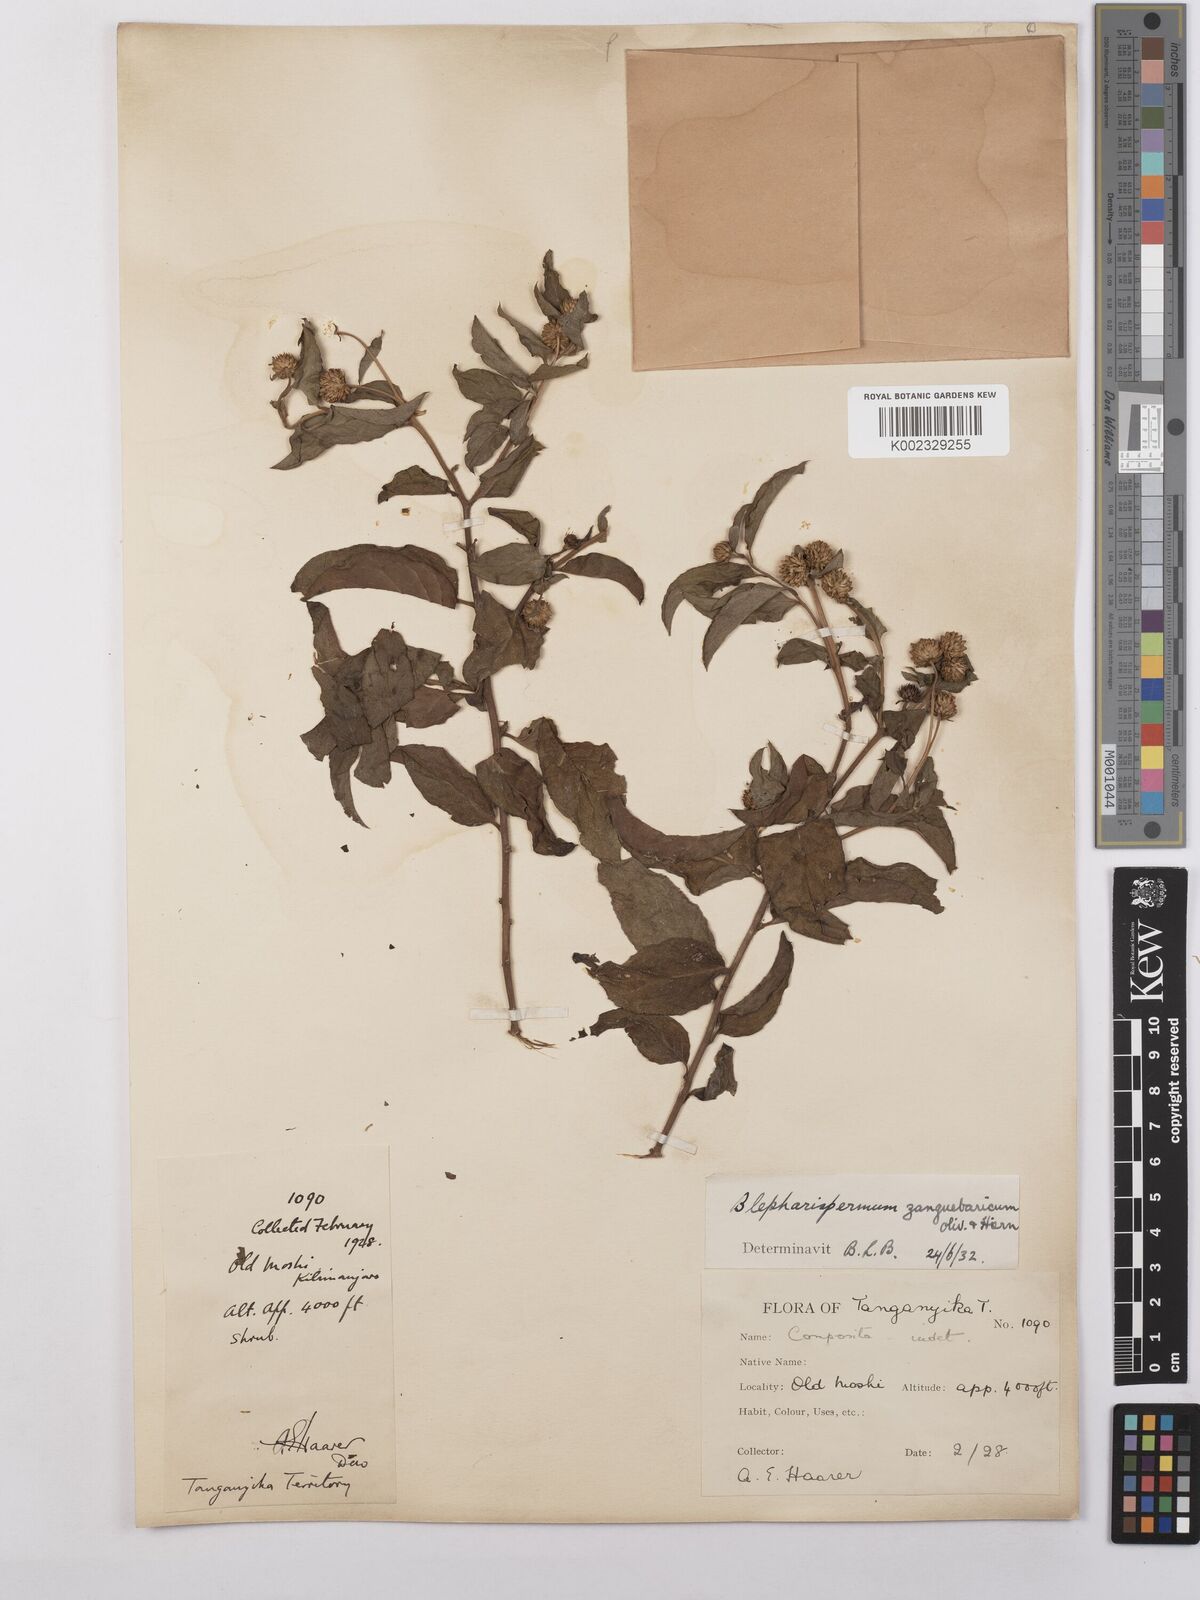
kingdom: Plantae
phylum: Tracheophyta
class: Magnoliopsida
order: Asterales
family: Asteraceae
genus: Blepharispermum
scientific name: Blepharispermum zanguebaricum
